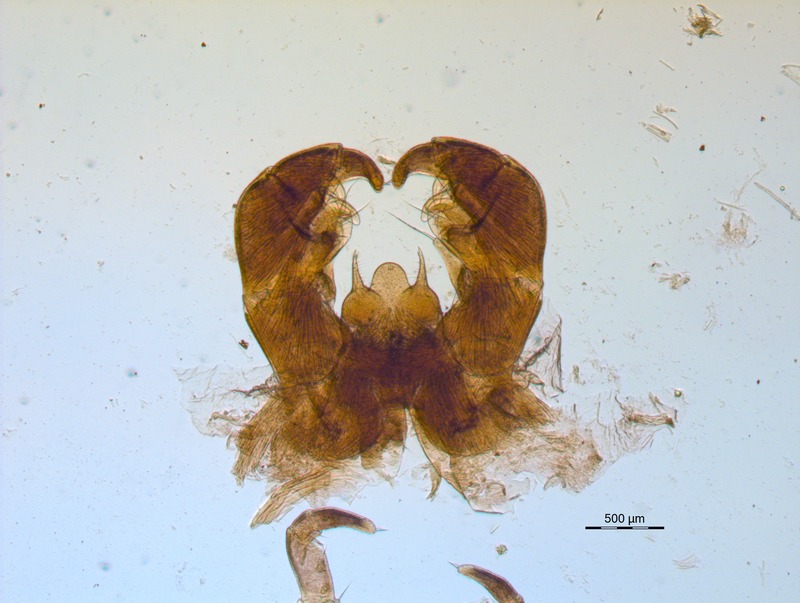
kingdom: Animalia
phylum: Arthropoda
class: Diplopoda
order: Glomerida
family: Glomeridae
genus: Glomeris
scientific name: Glomeris genuensis
